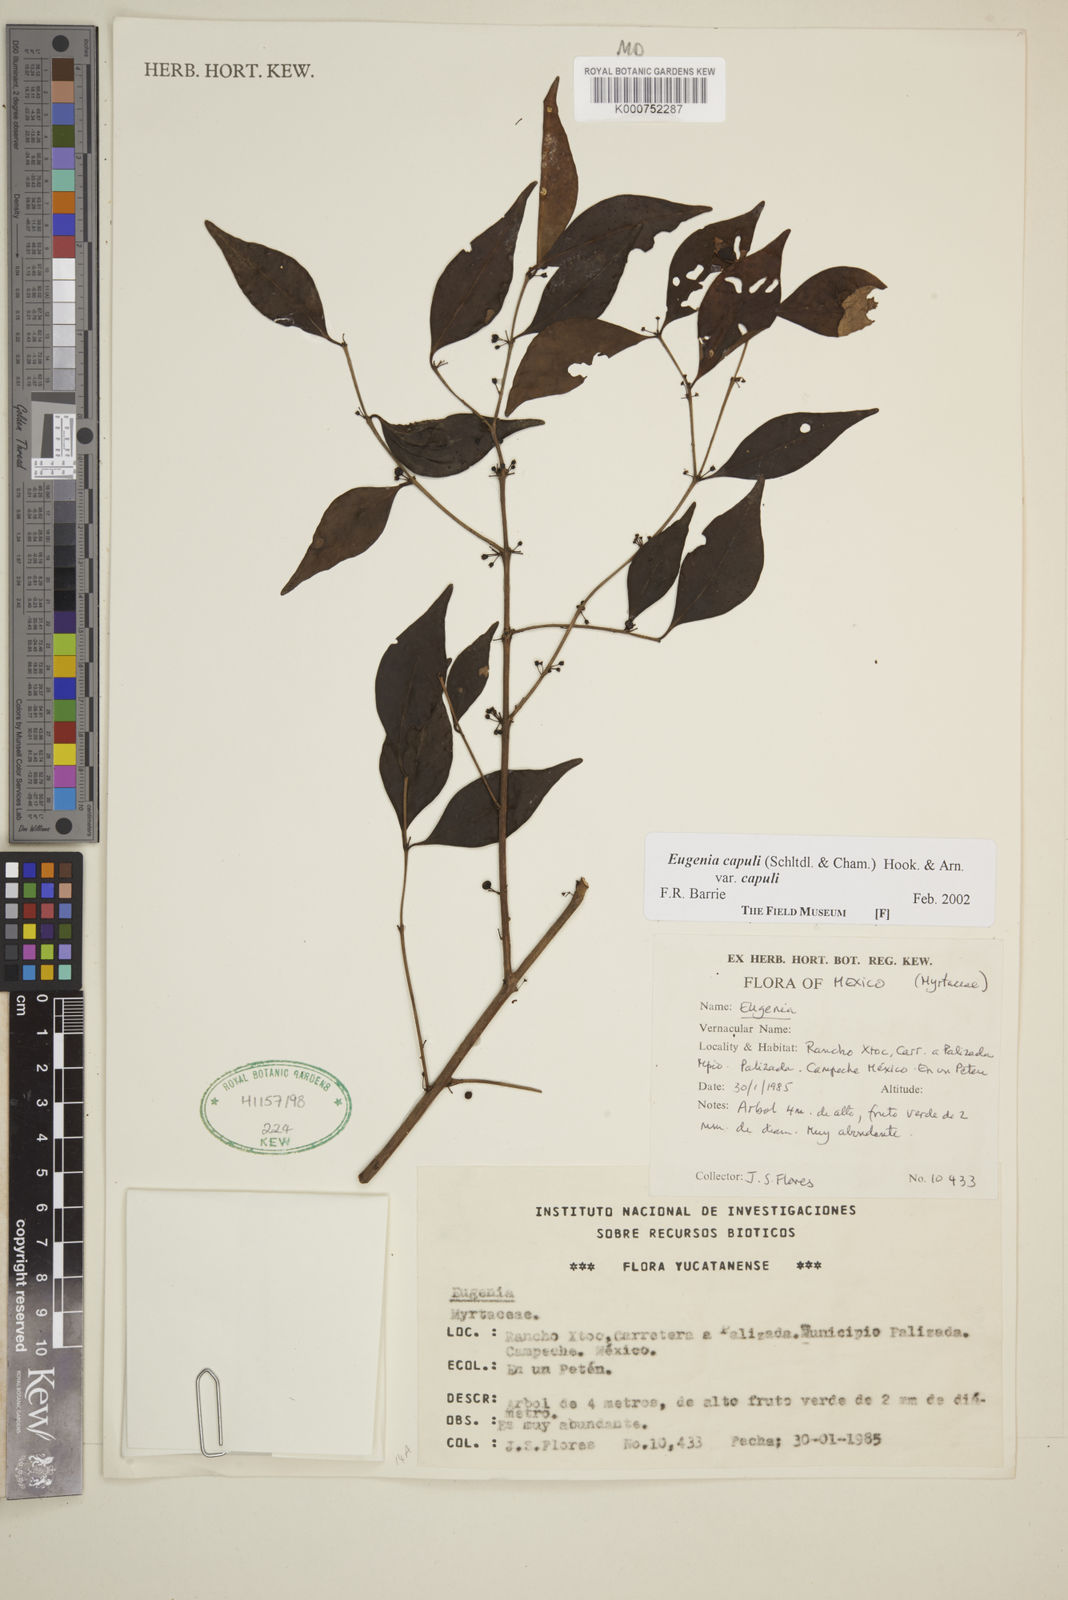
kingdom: Plantae
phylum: Tracheophyta
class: Magnoliopsida
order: Myrtales
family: Myrtaceae
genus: Eugenia
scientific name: Eugenia capuli
